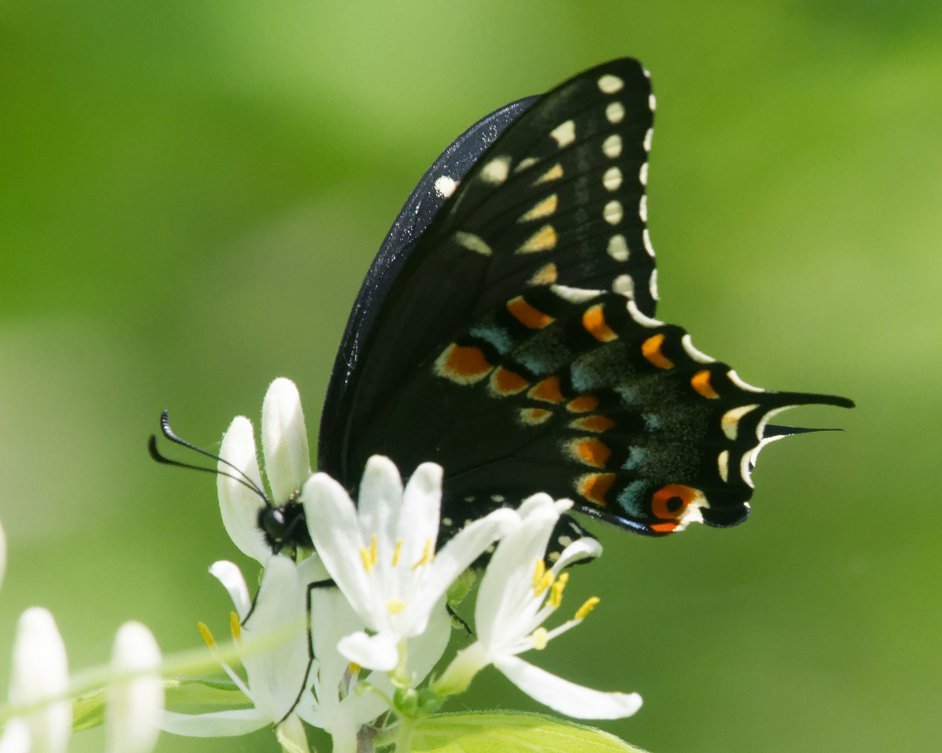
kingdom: Animalia
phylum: Arthropoda
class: Insecta
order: Lepidoptera
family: Papilionidae
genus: Papilio
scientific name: Papilio polyxenes
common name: Black Swallowtail
